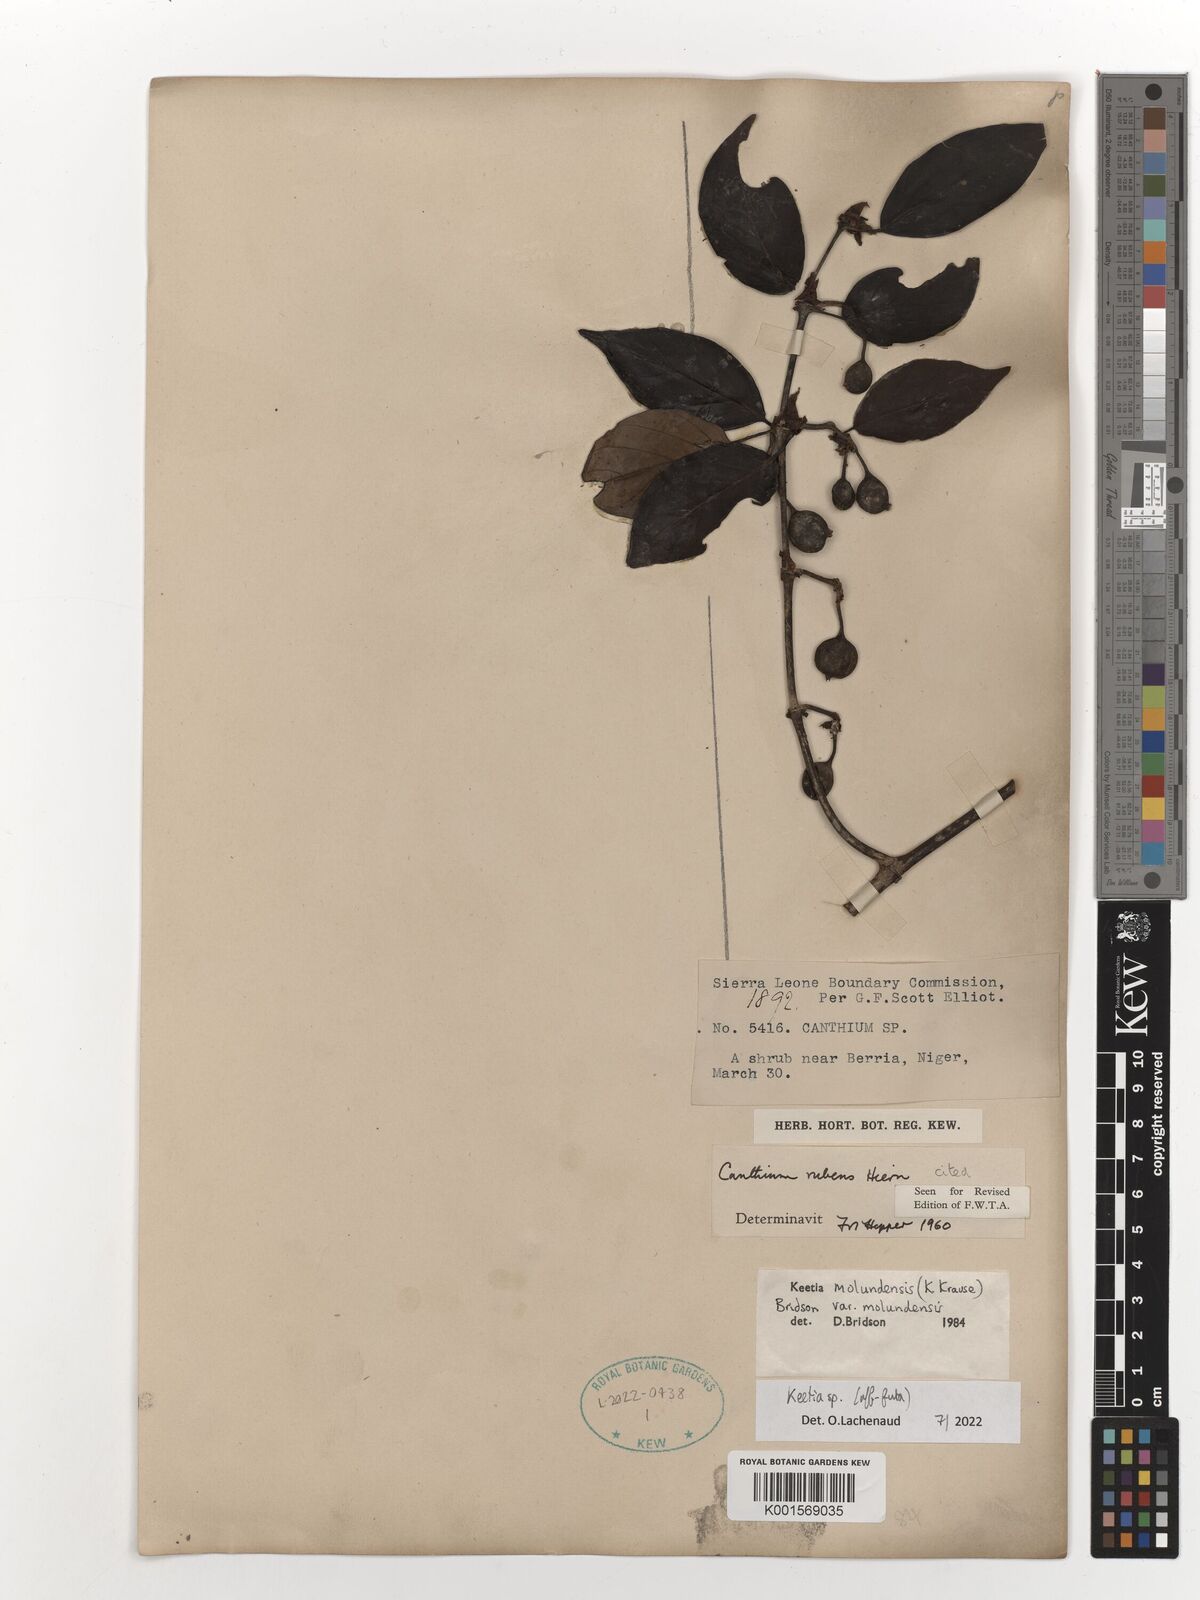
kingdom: Plantae
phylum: Tracheophyta
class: Magnoliopsida
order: Gentianales
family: Rubiaceae
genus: Keetia
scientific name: Keetia futa
